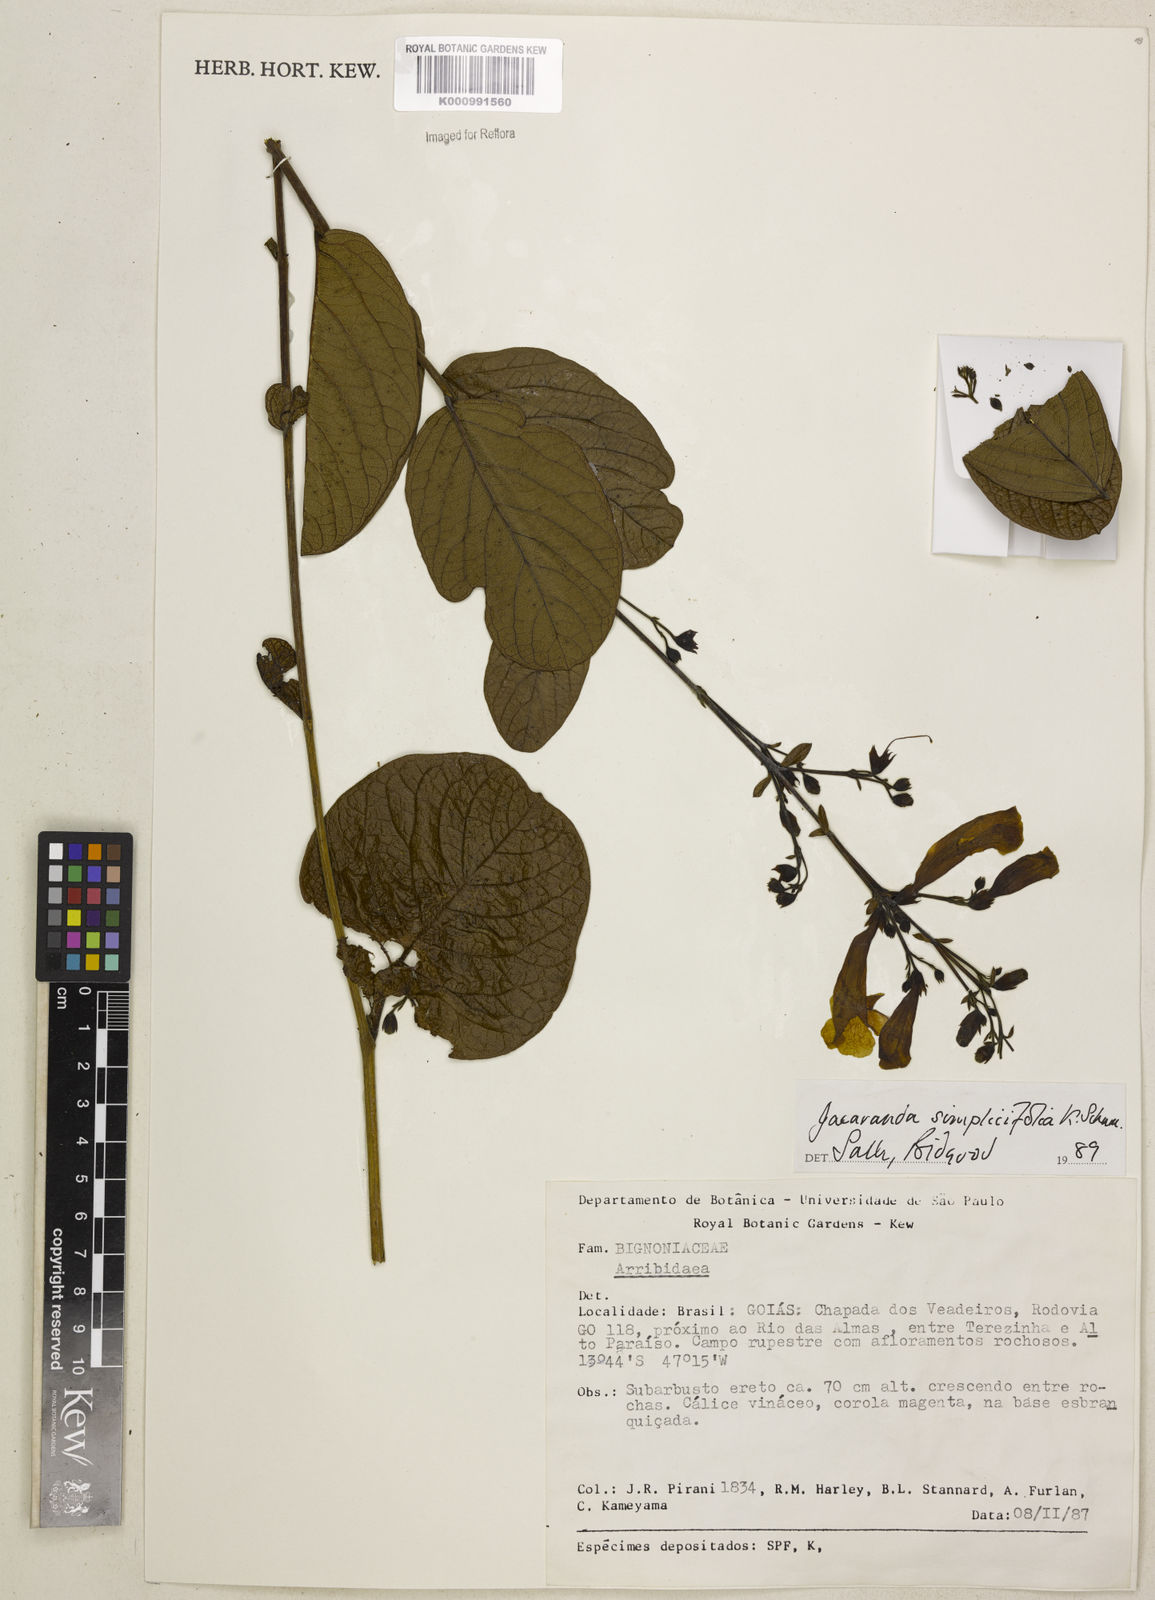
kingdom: Plantae
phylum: Tracheophyta
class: Magnoliopsida
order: Lamiales
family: Bignoniaceae
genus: Jacaranda
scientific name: Jacaranda simplicifolia
